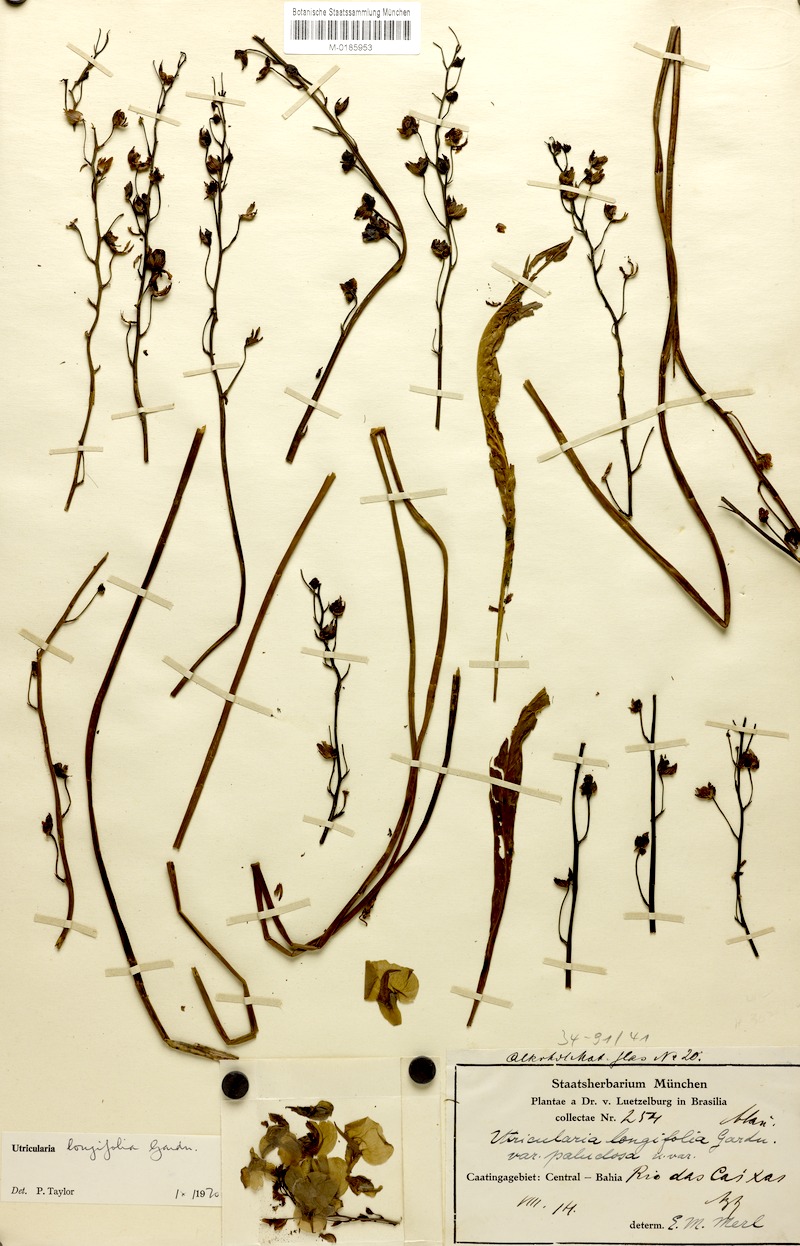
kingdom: Plantae
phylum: Tracheophyta
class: Magnoliopsida
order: Lamiales
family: Lentibulariaceae
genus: Utricularia
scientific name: Utricularia longifolia
